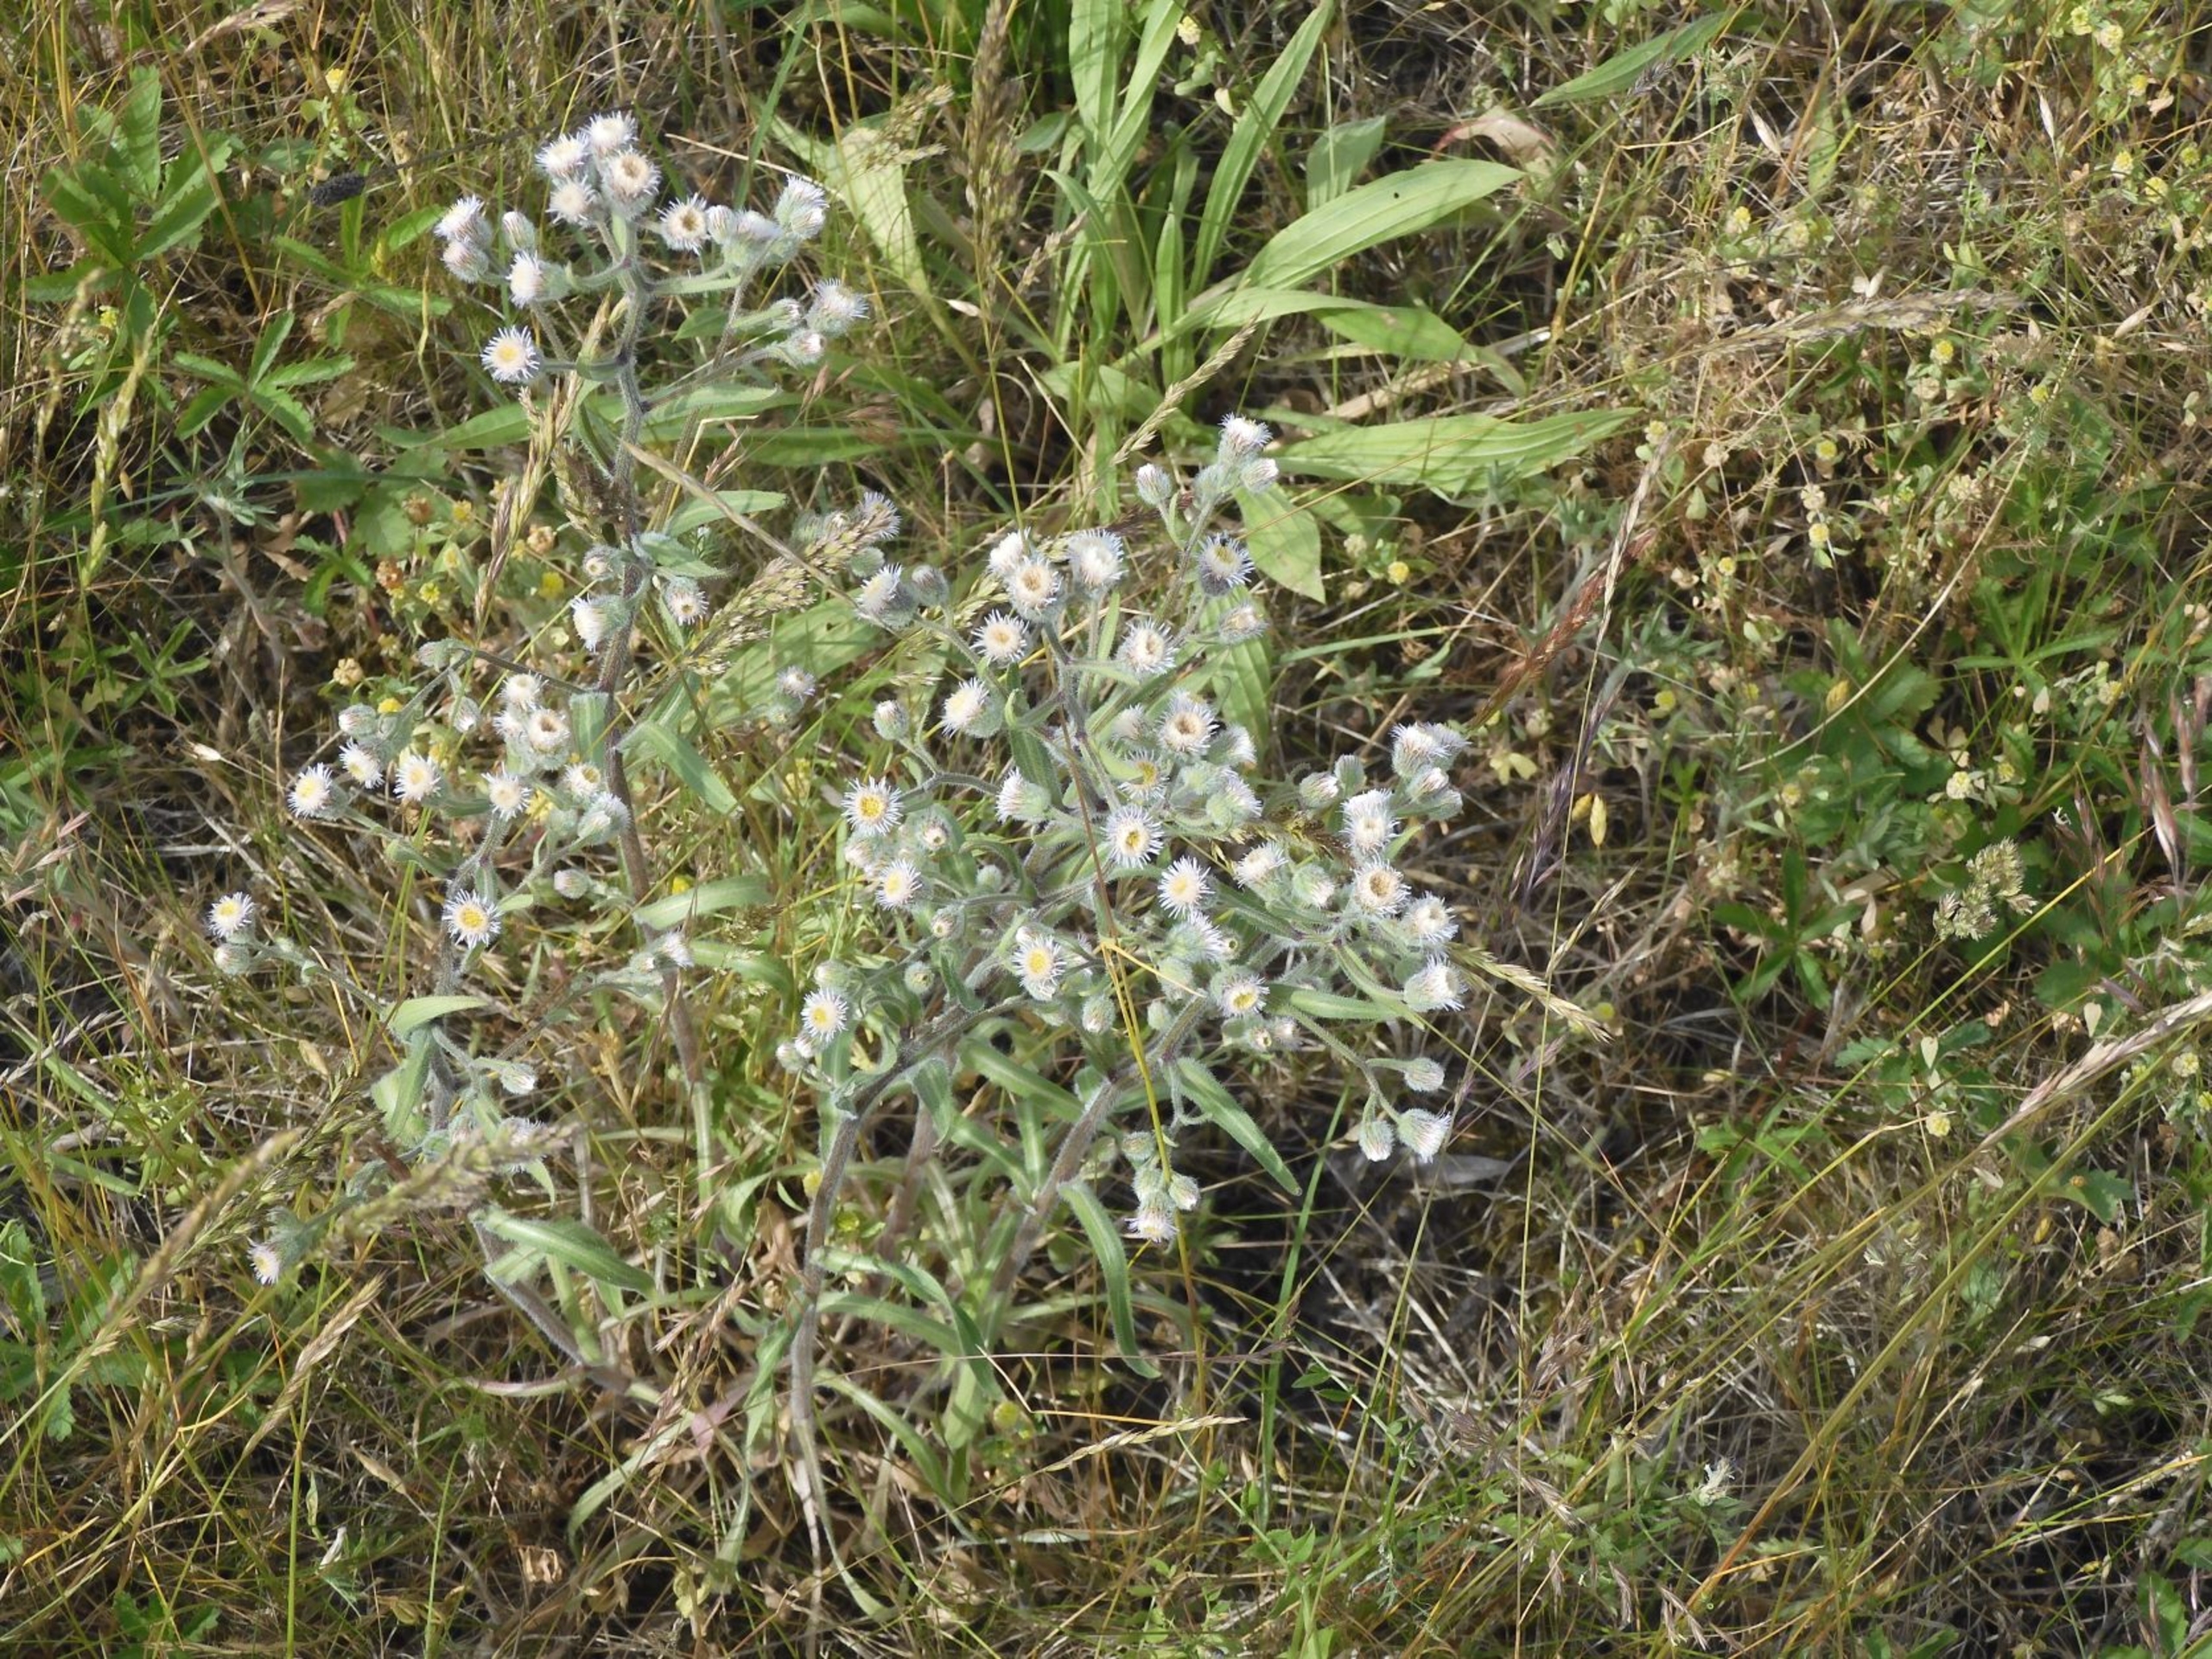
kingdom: Plantae
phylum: Tracheophyta
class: Magnoliopsida
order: Asterales
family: Asteraceae
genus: Erigeron
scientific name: Erigeron acris
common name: Bitter bakkestjerne
